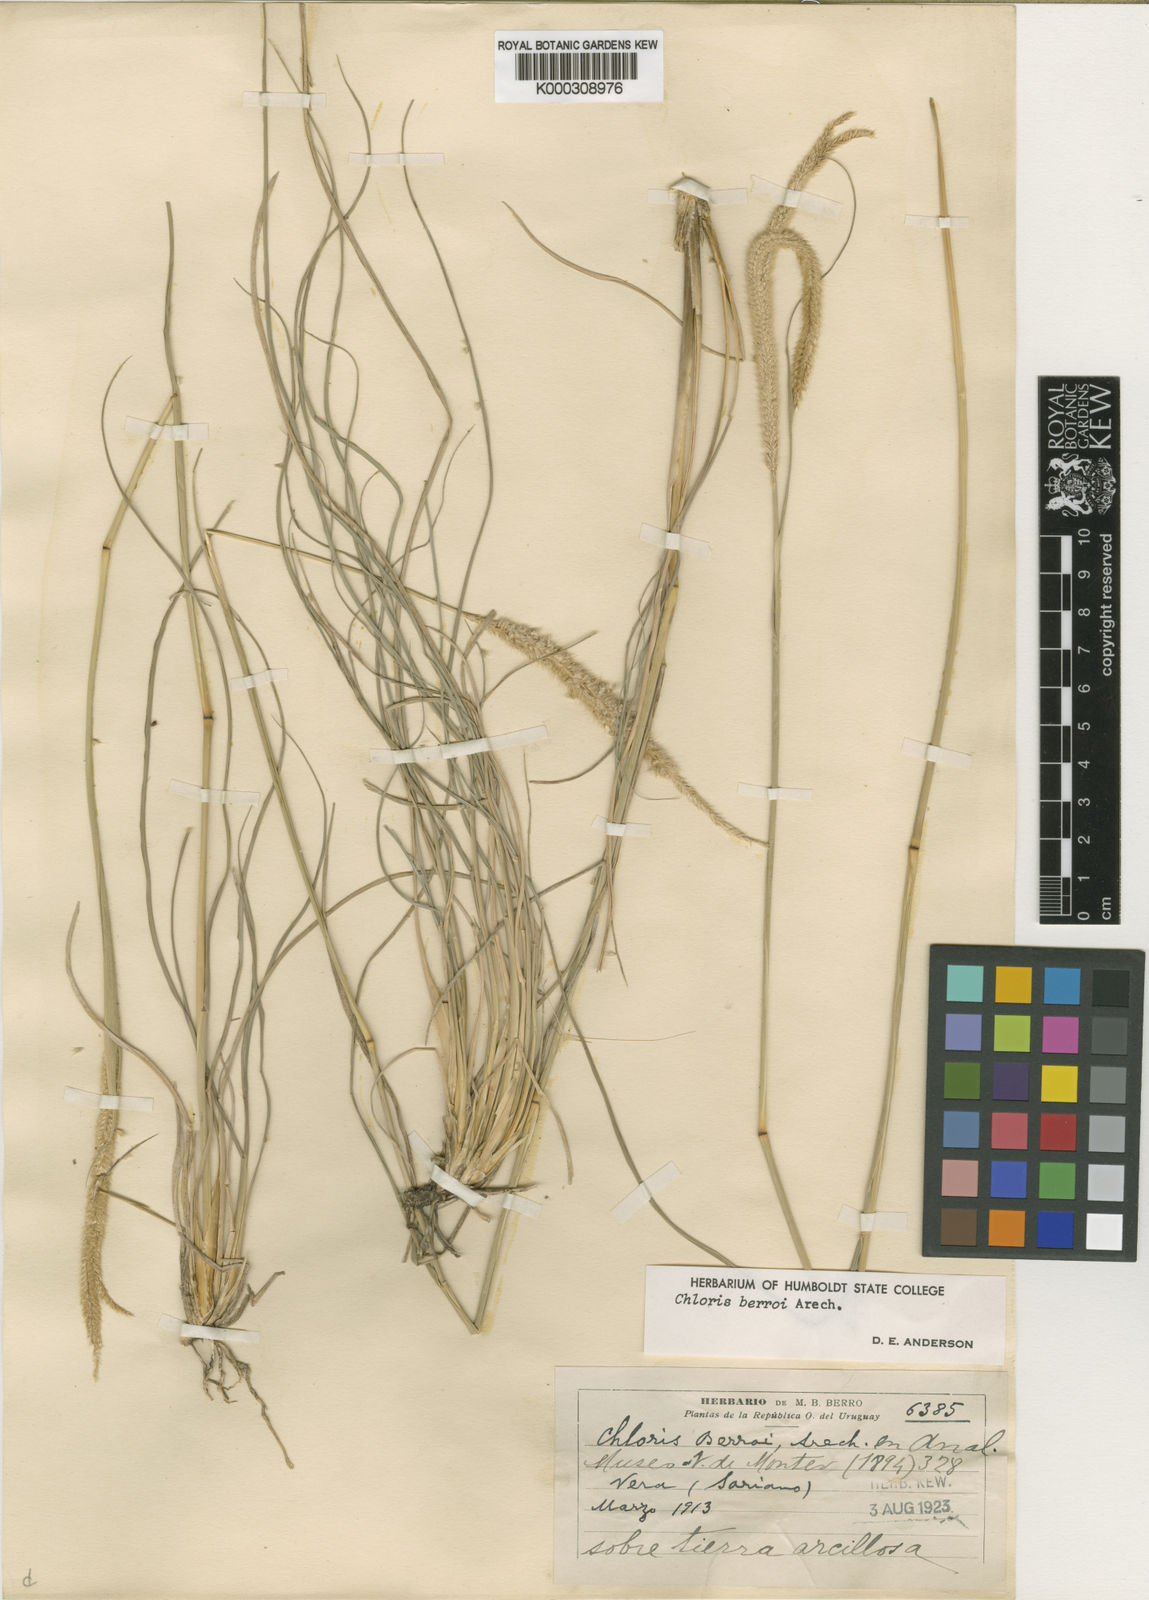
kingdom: Plantae
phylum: Tracheophyta
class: Liliopsida
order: Poales
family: Poaceae
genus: Stapfochloa
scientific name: Stapfochloa berroi
